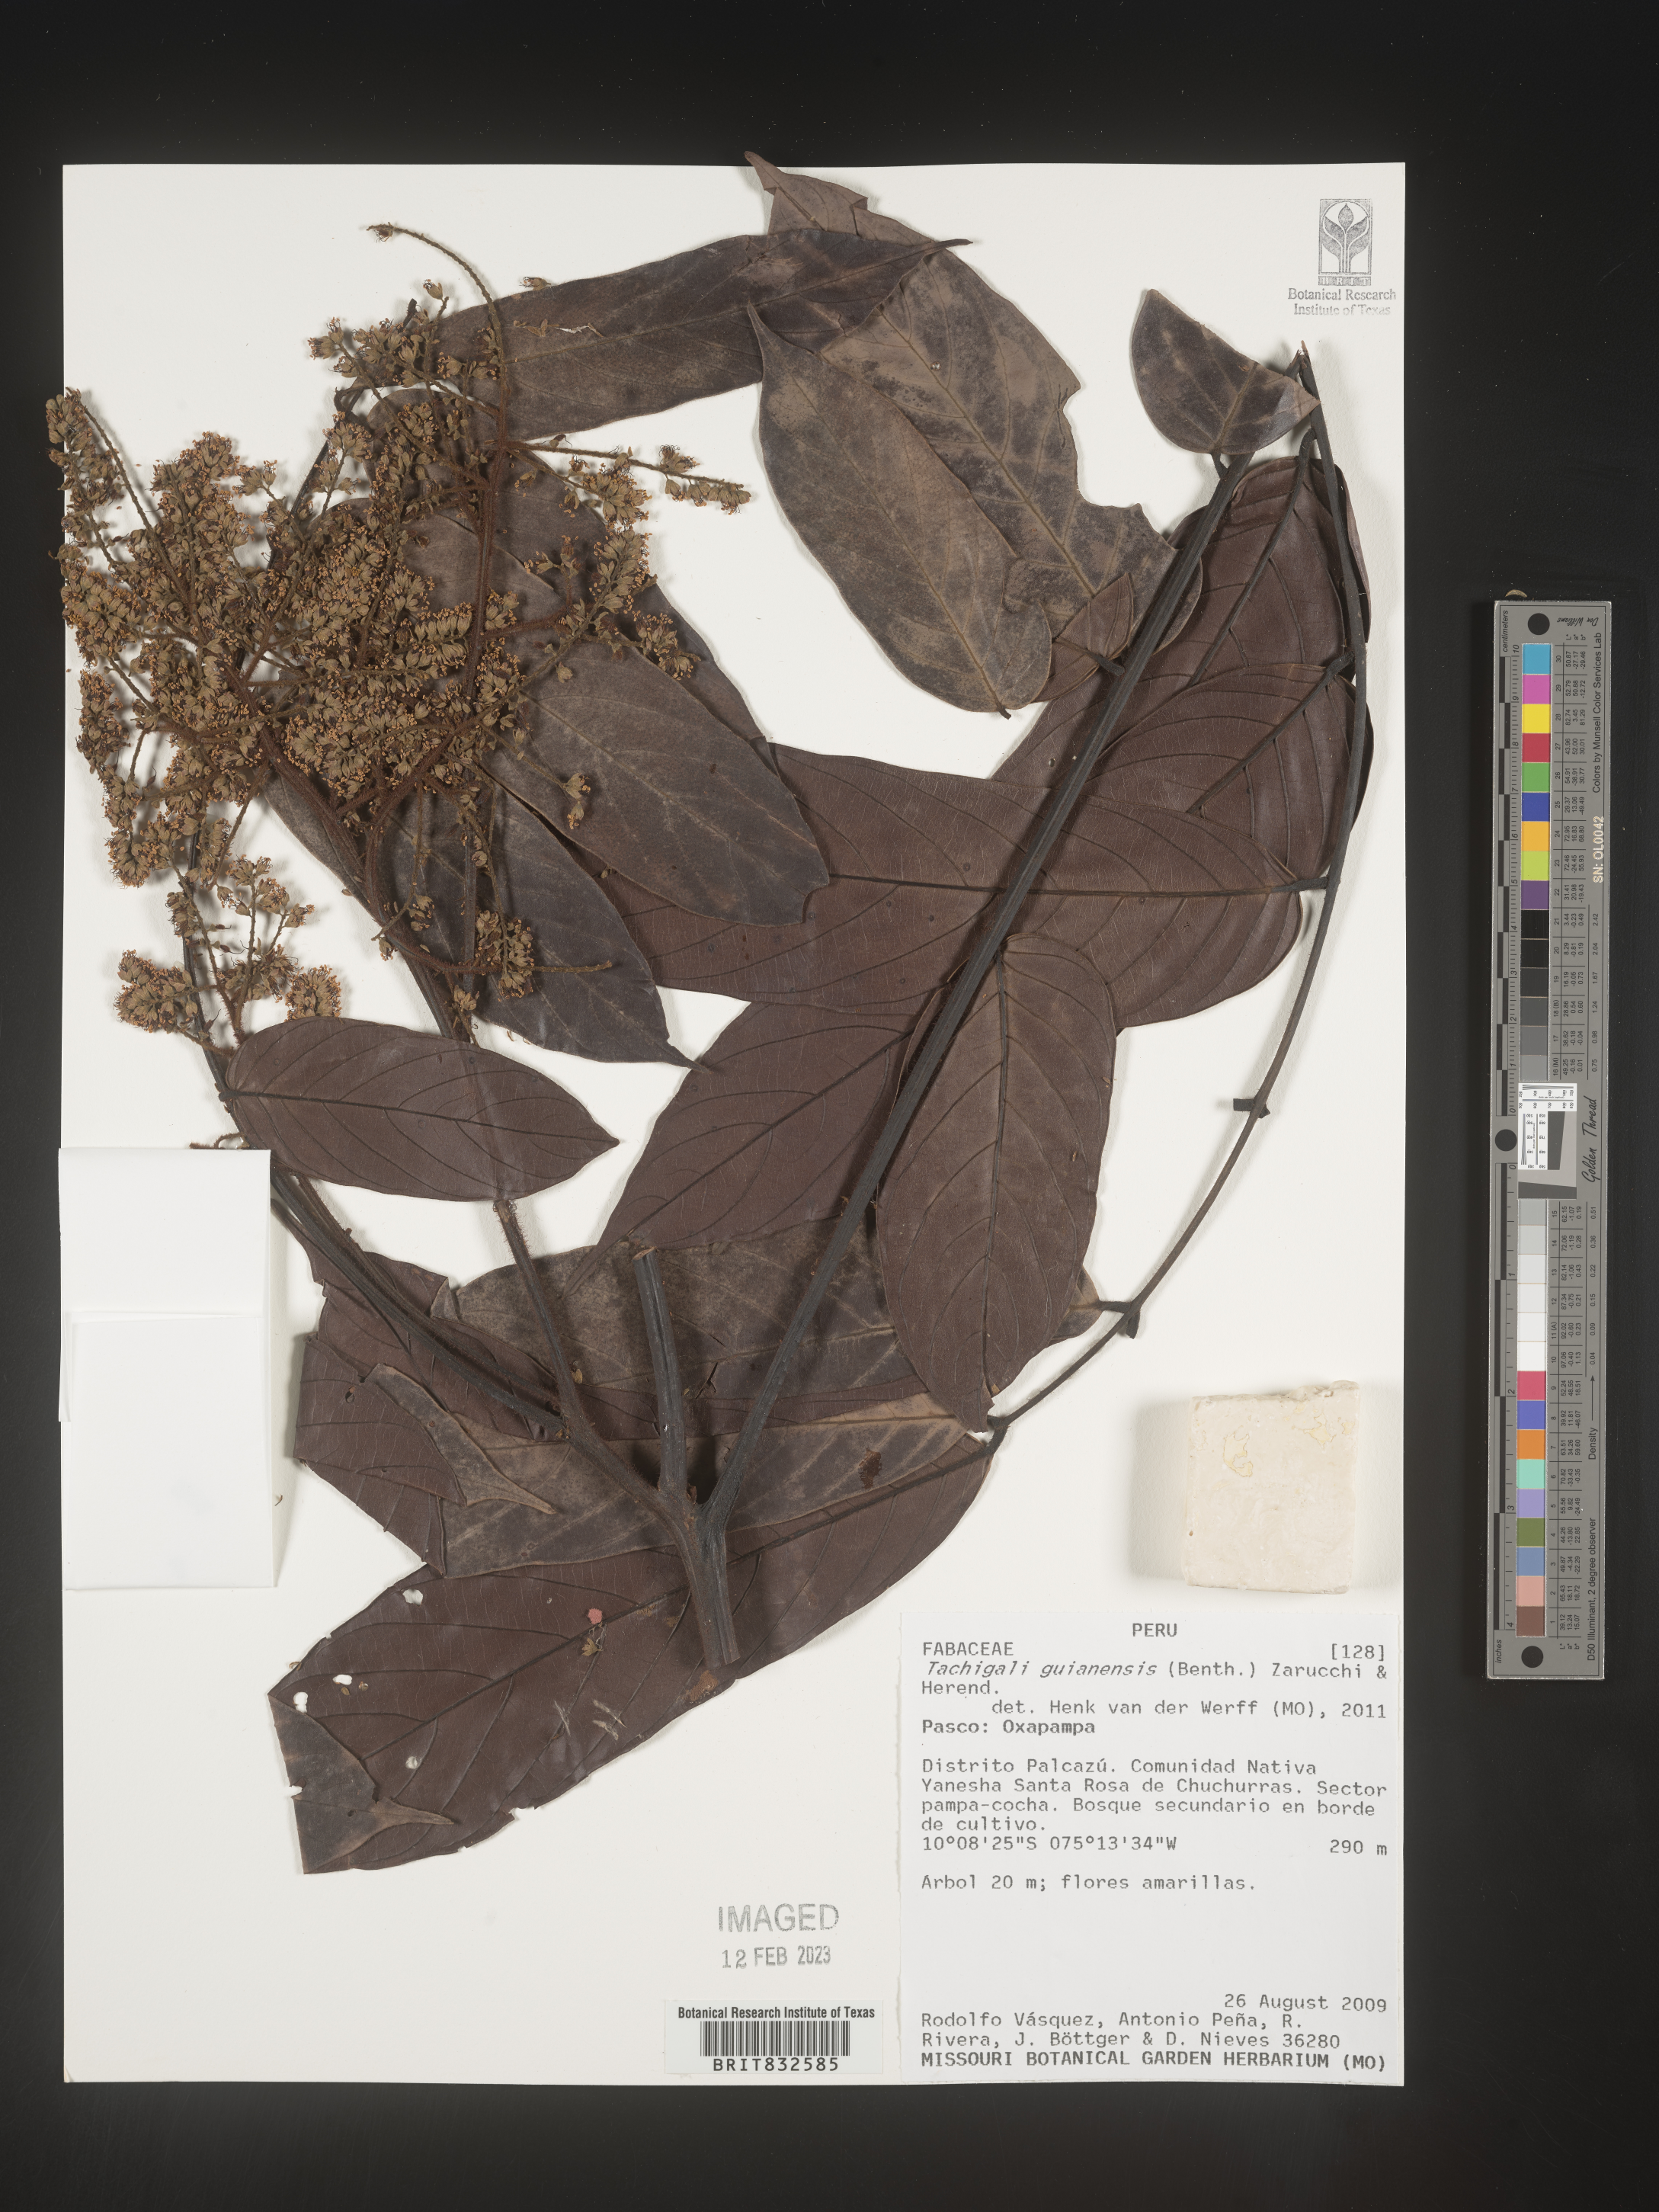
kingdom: Plantae
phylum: Tracheophyta
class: Magnoliopsida
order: Fabales
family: Fabaceae
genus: Tachigali
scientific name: Tachigali
